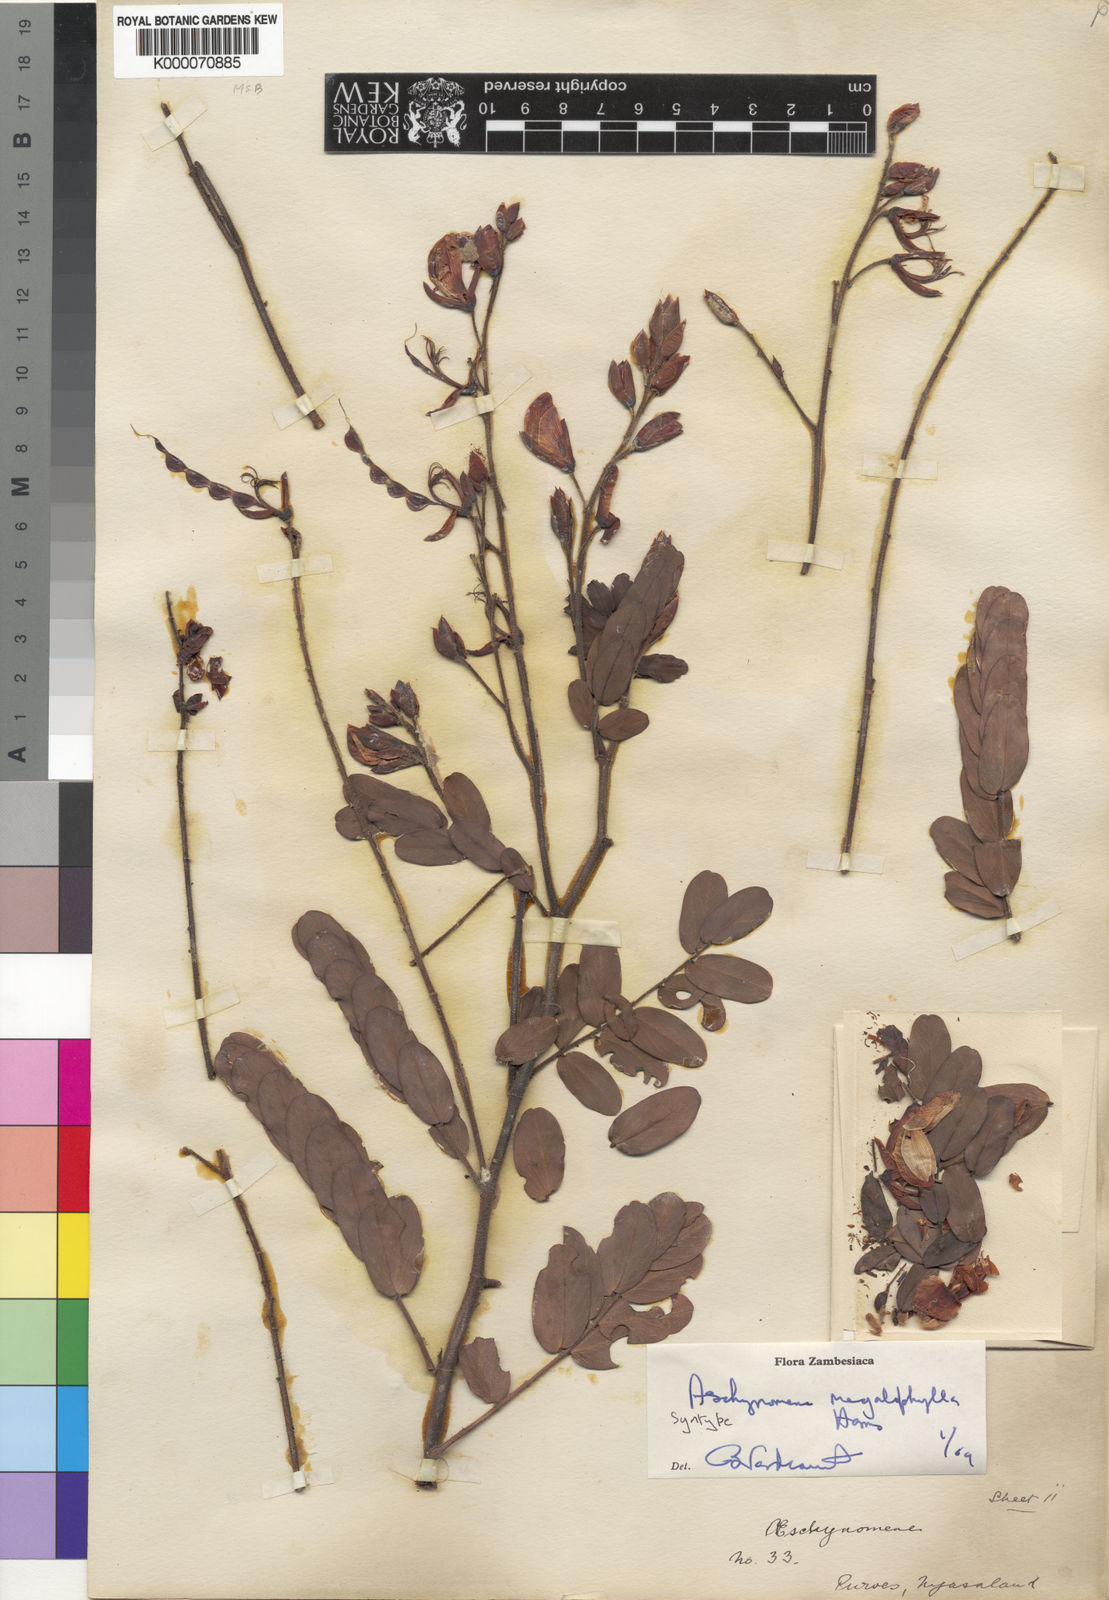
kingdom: Plantae
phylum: Tracheophyta
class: Magnoliopsida
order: Fabales
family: Fabaceae
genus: Aeschynomene
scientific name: Aeschynomene megalophylla
